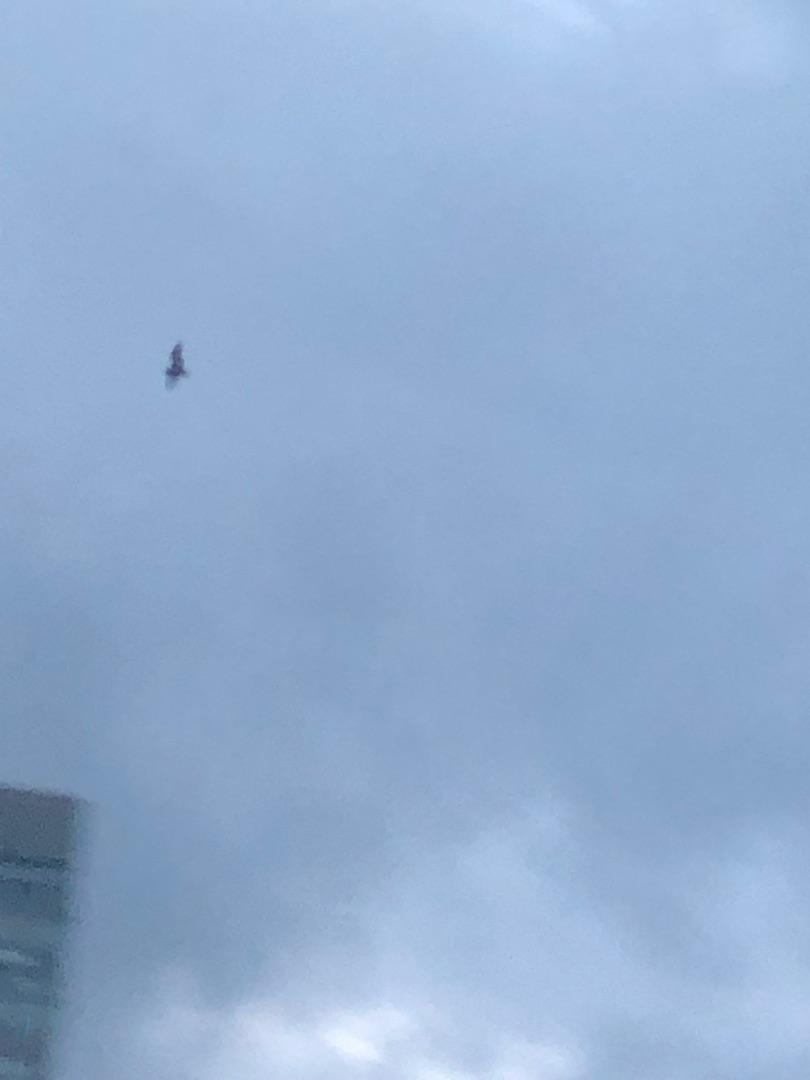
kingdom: Animalia
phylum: Chordata
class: Mammalia
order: Chiroptera
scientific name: Chiroptera
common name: Flagermus
